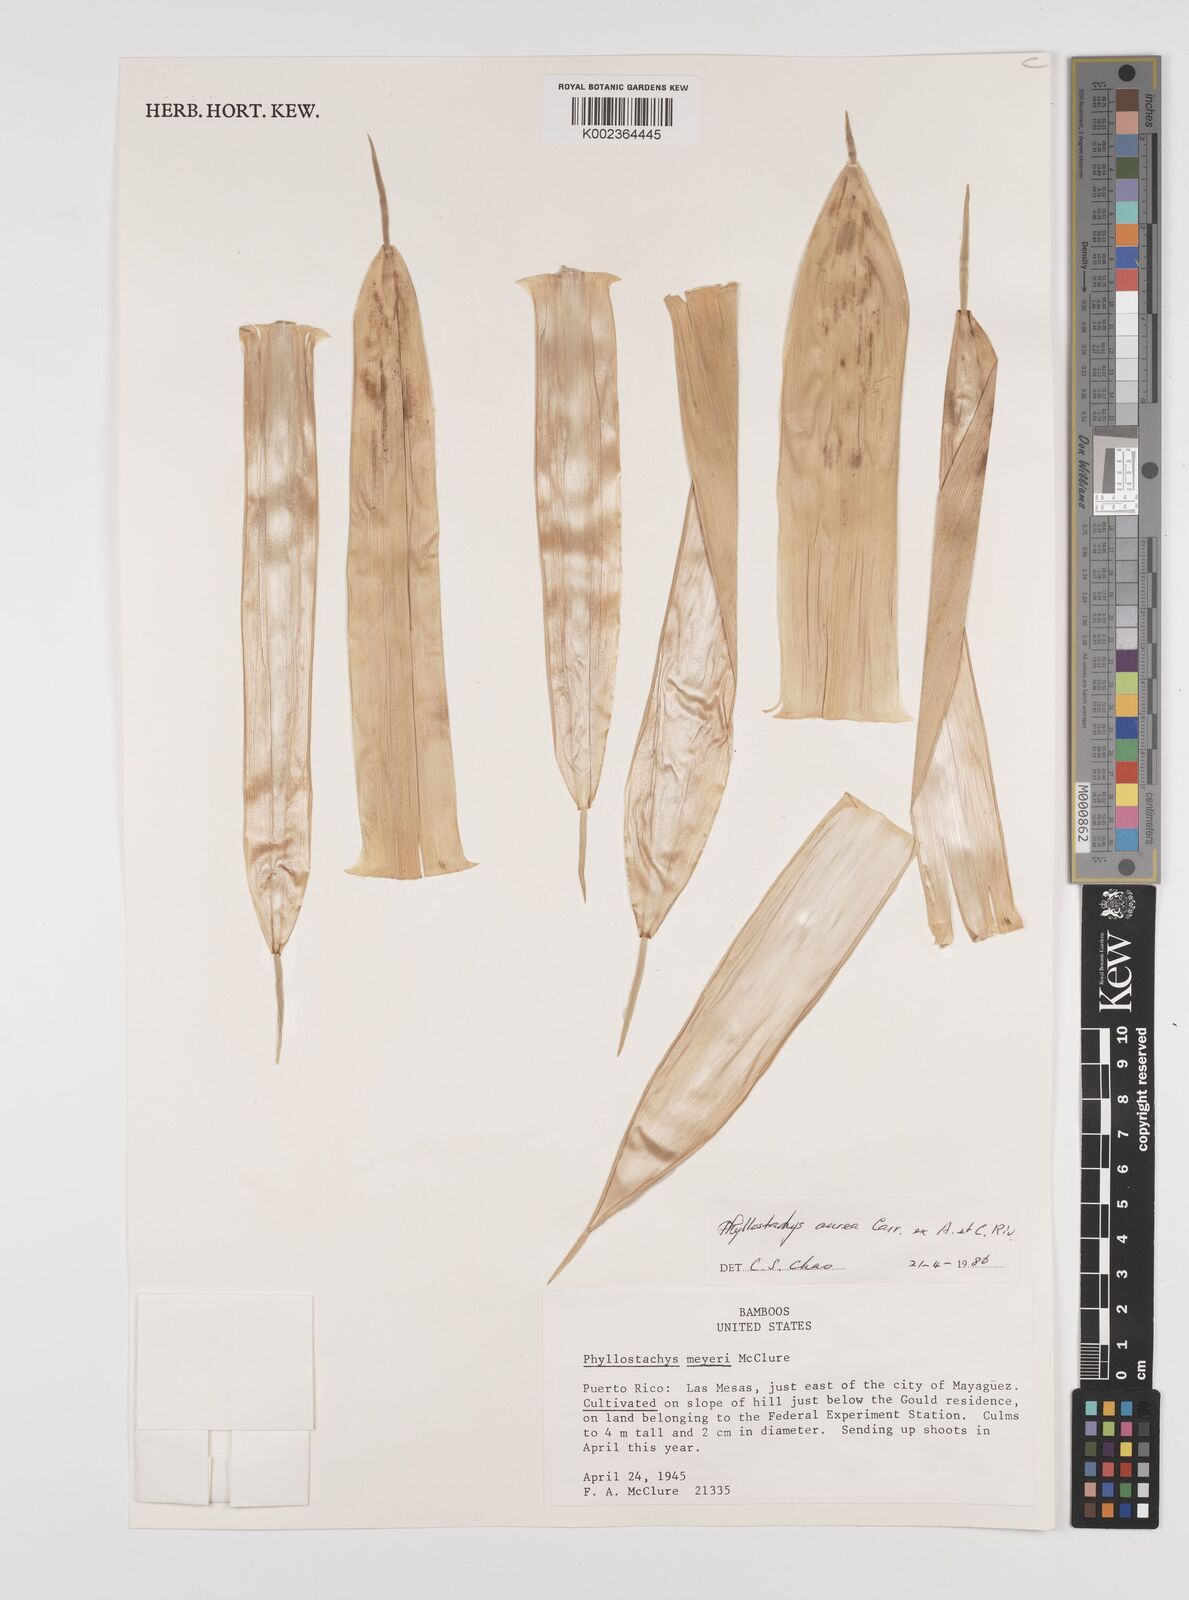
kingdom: Plantae
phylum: Tracheophyta
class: Liliopsida
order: Poales
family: Poaceae
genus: Phyllostachys
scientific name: Phyllostachys aurea
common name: Golden bamboo
